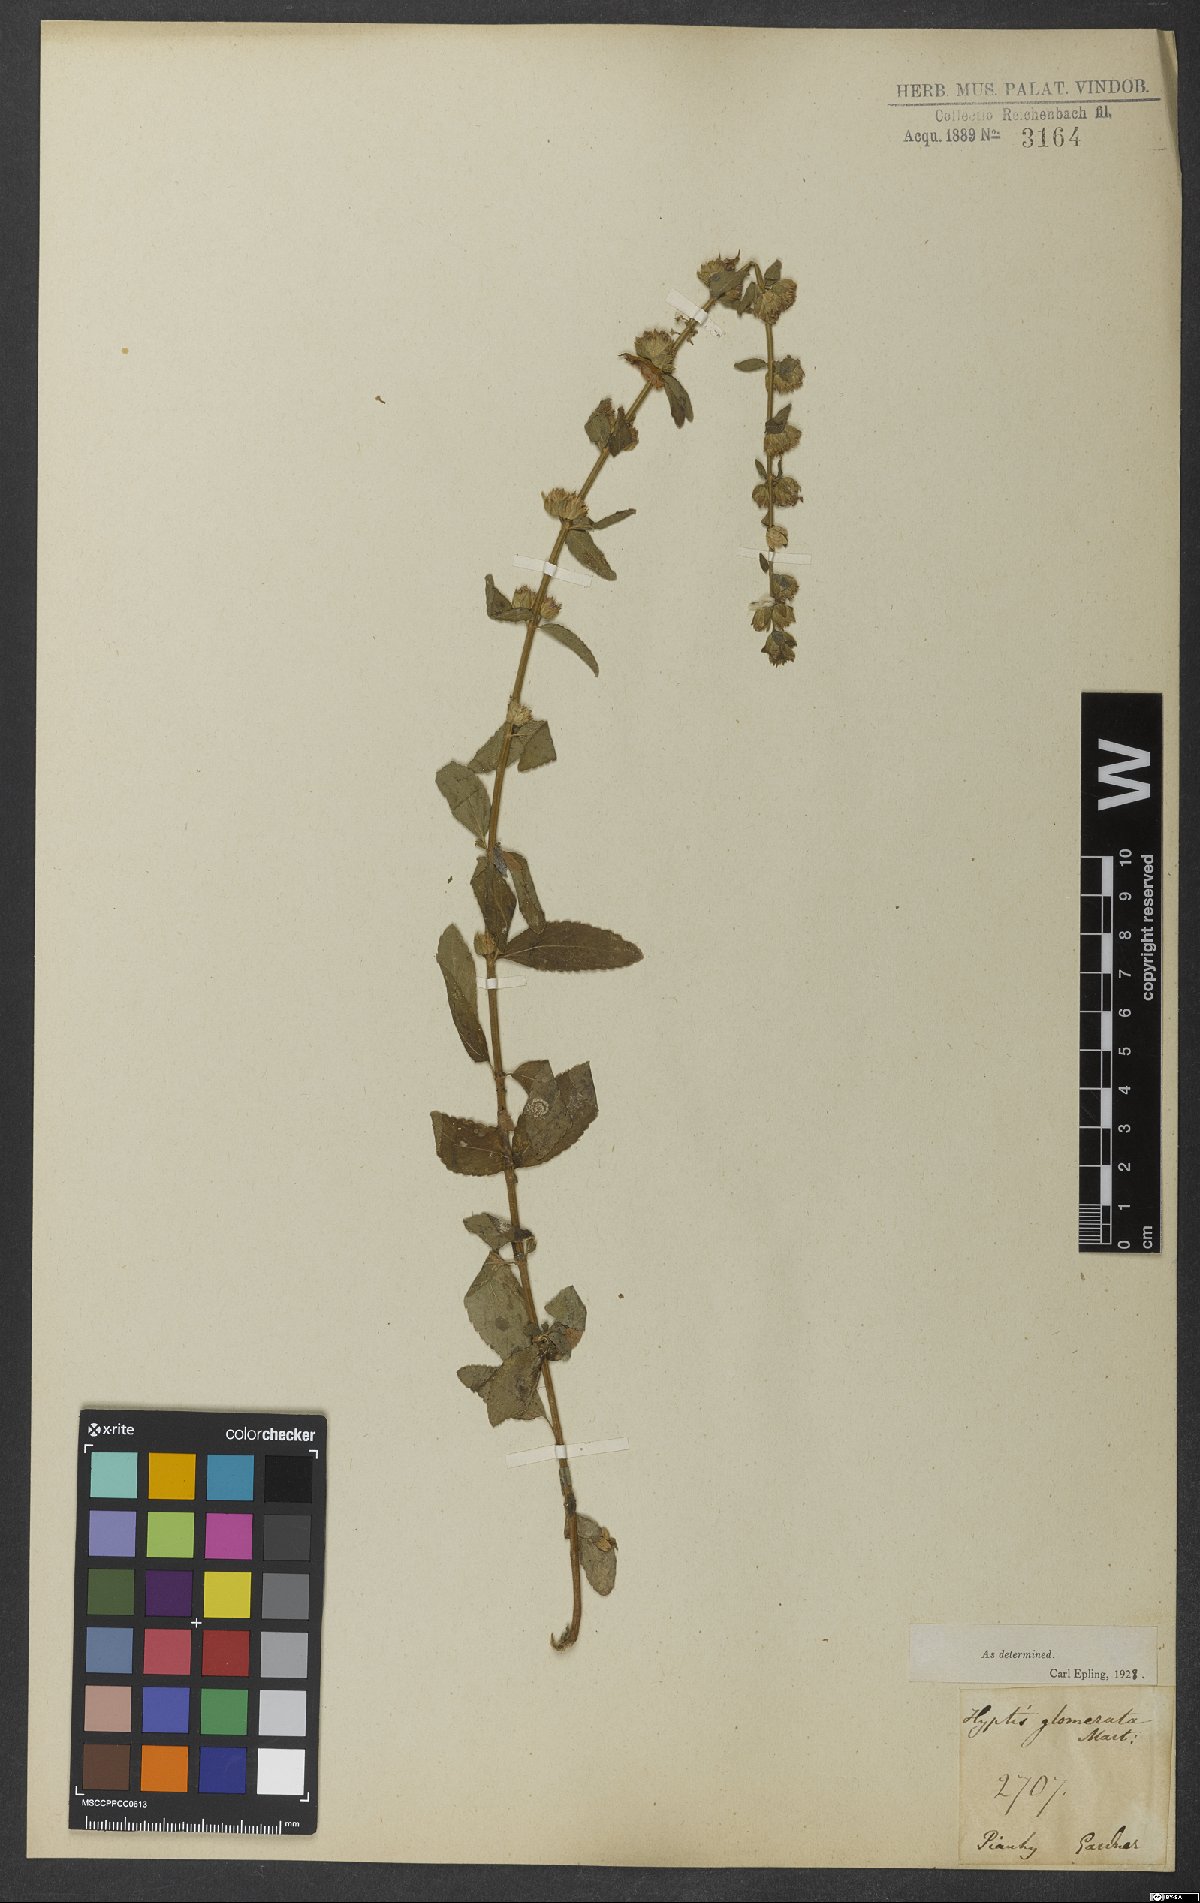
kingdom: Plantae
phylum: Tracheophyta
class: Magnoliopsida
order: Lamiales
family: Lamiaceae
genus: Oocephalus
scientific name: Oocephalus oppositiflorus
